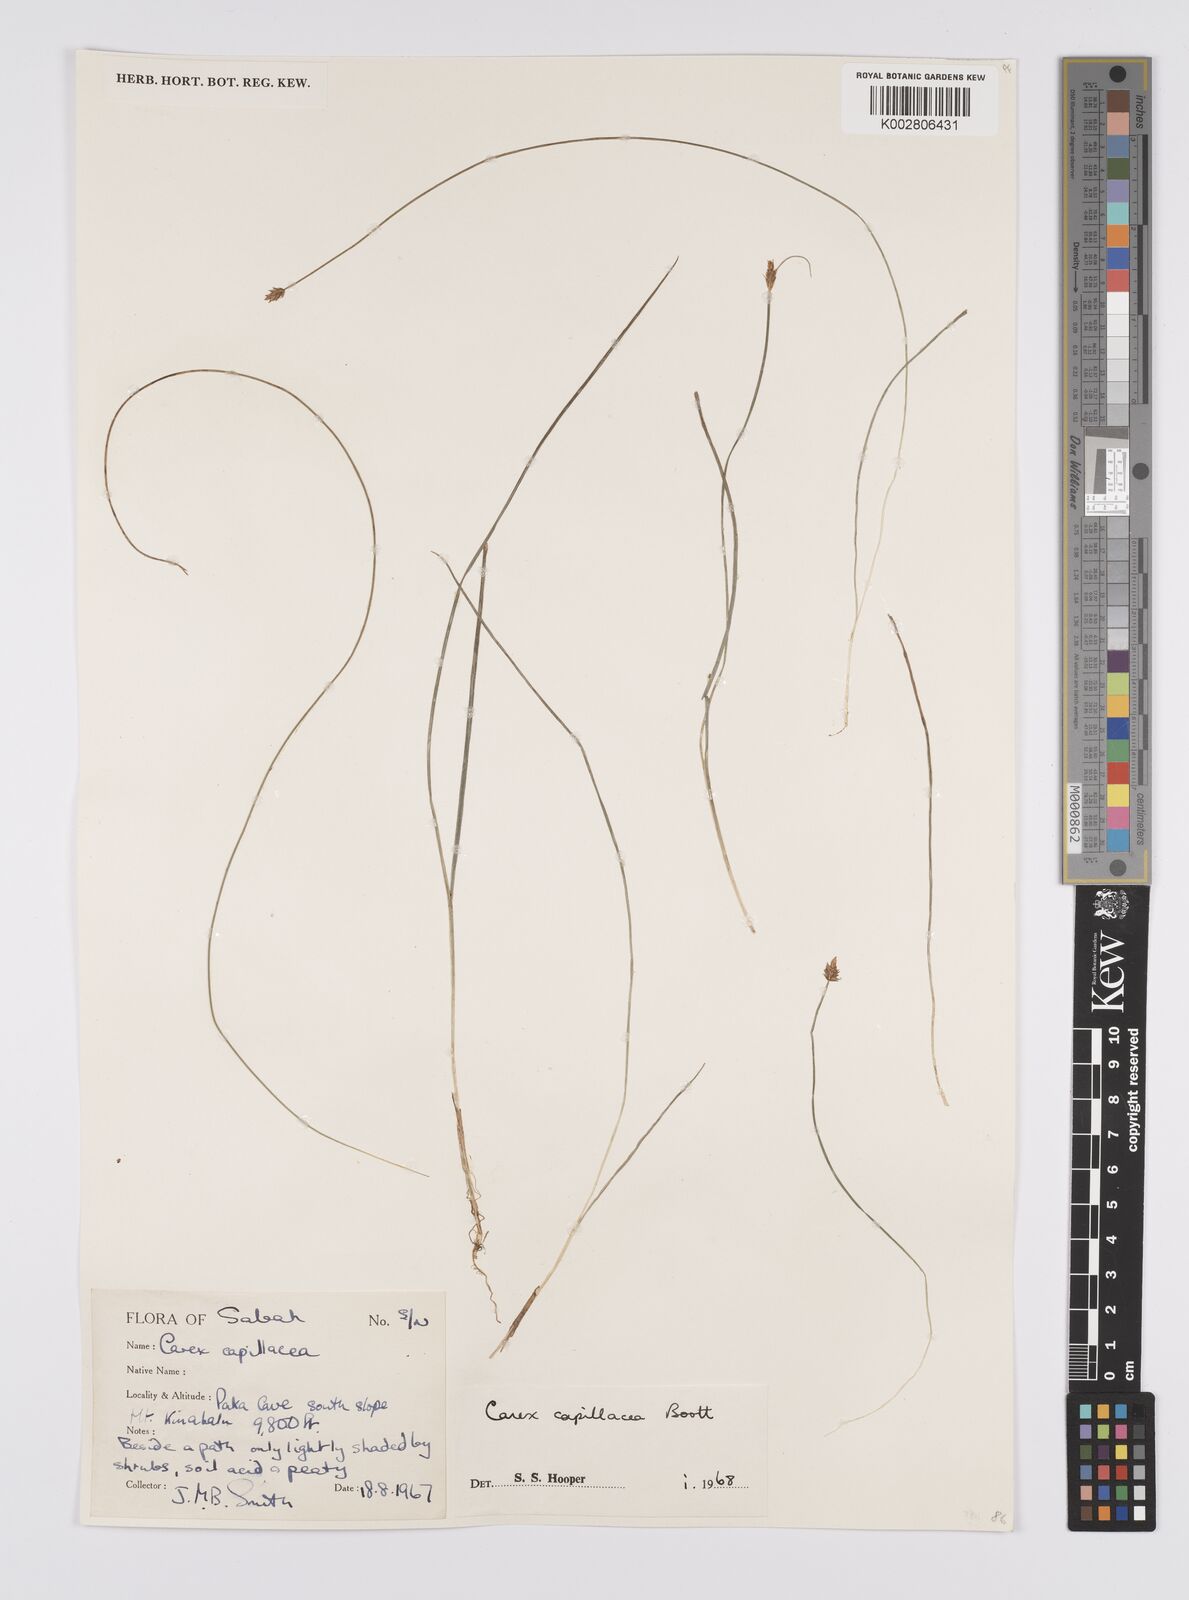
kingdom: Plantae
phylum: Tracheophyta
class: Liliopsida
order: Poales
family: Cyperaceae
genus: Carex
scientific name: Carex capillacea
